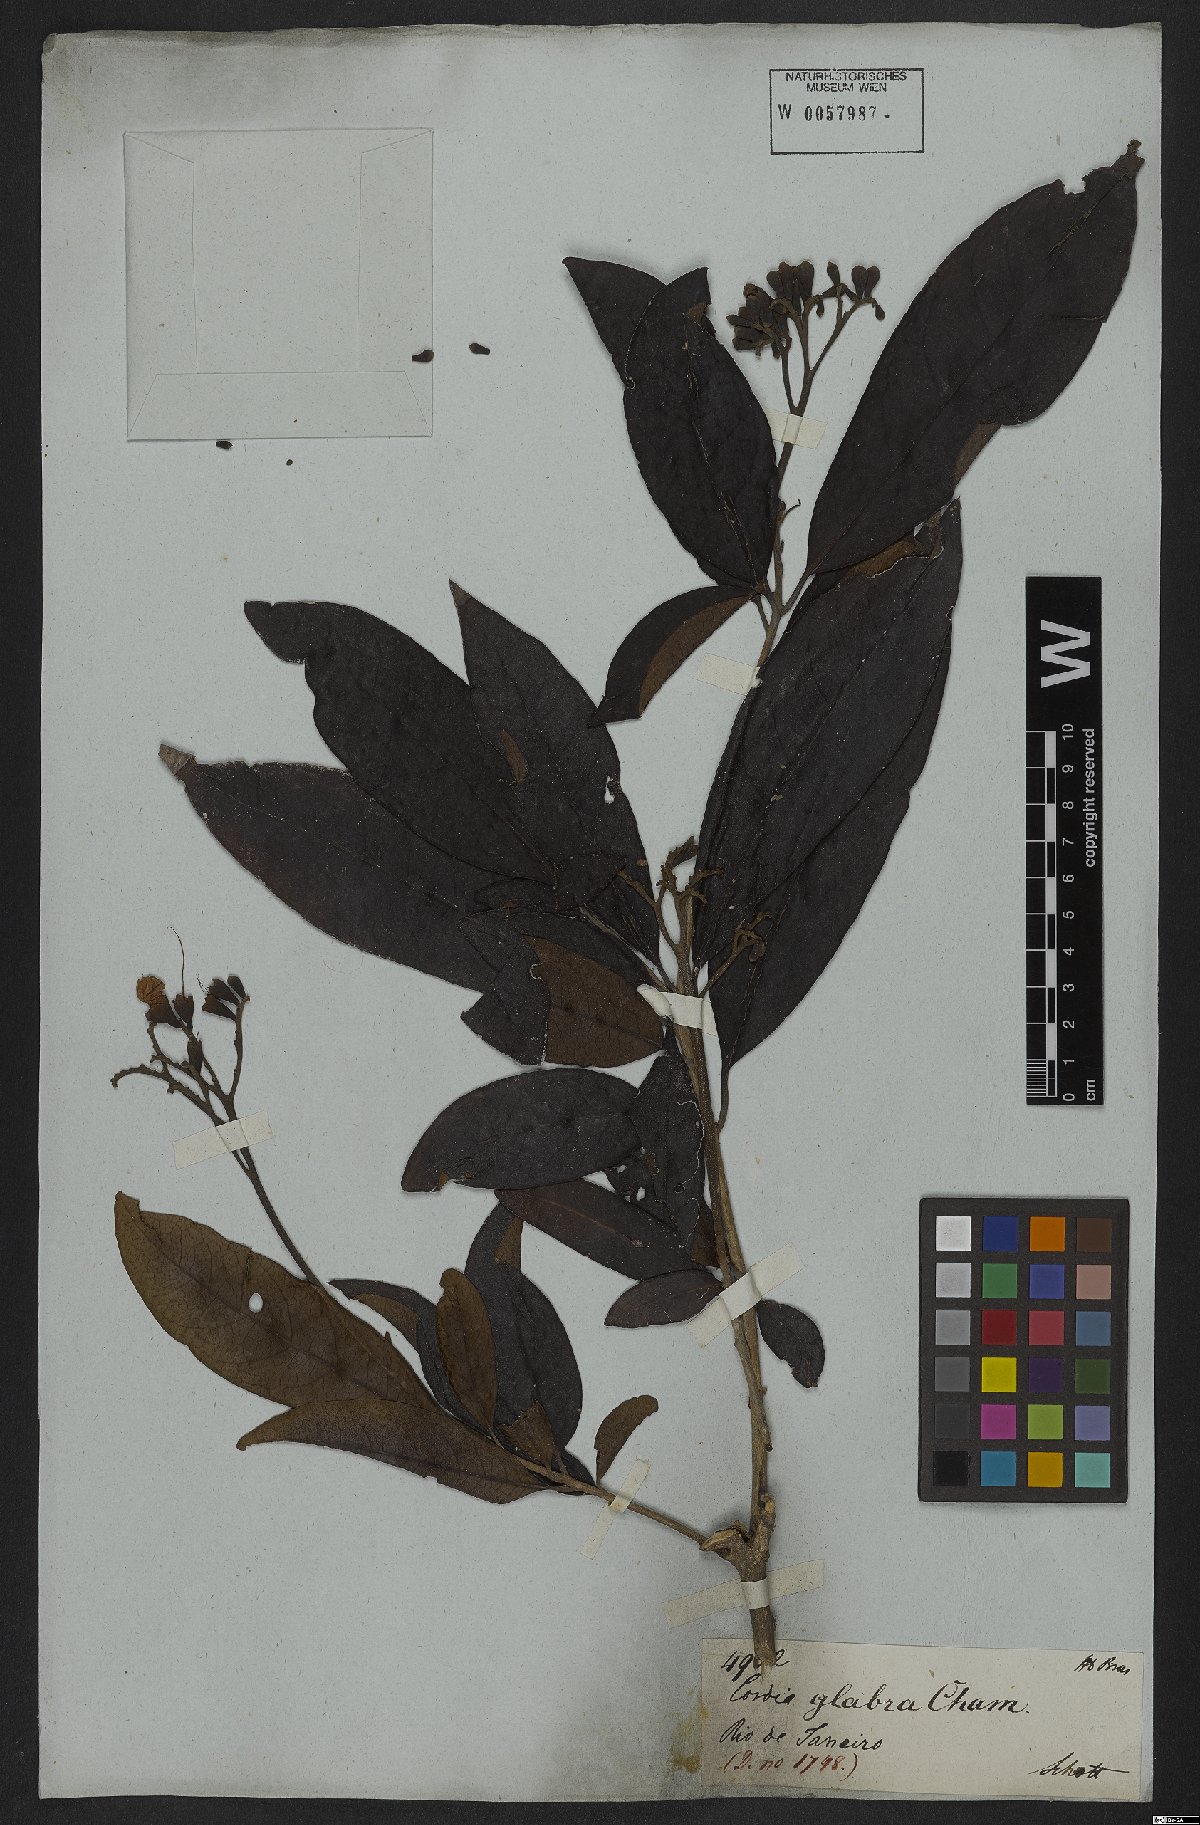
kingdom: Plantae
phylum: Tracheophyta
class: Magnoliopsida
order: Boraginales
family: Cordiaceae
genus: Cordia
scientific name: Cordia glabra
